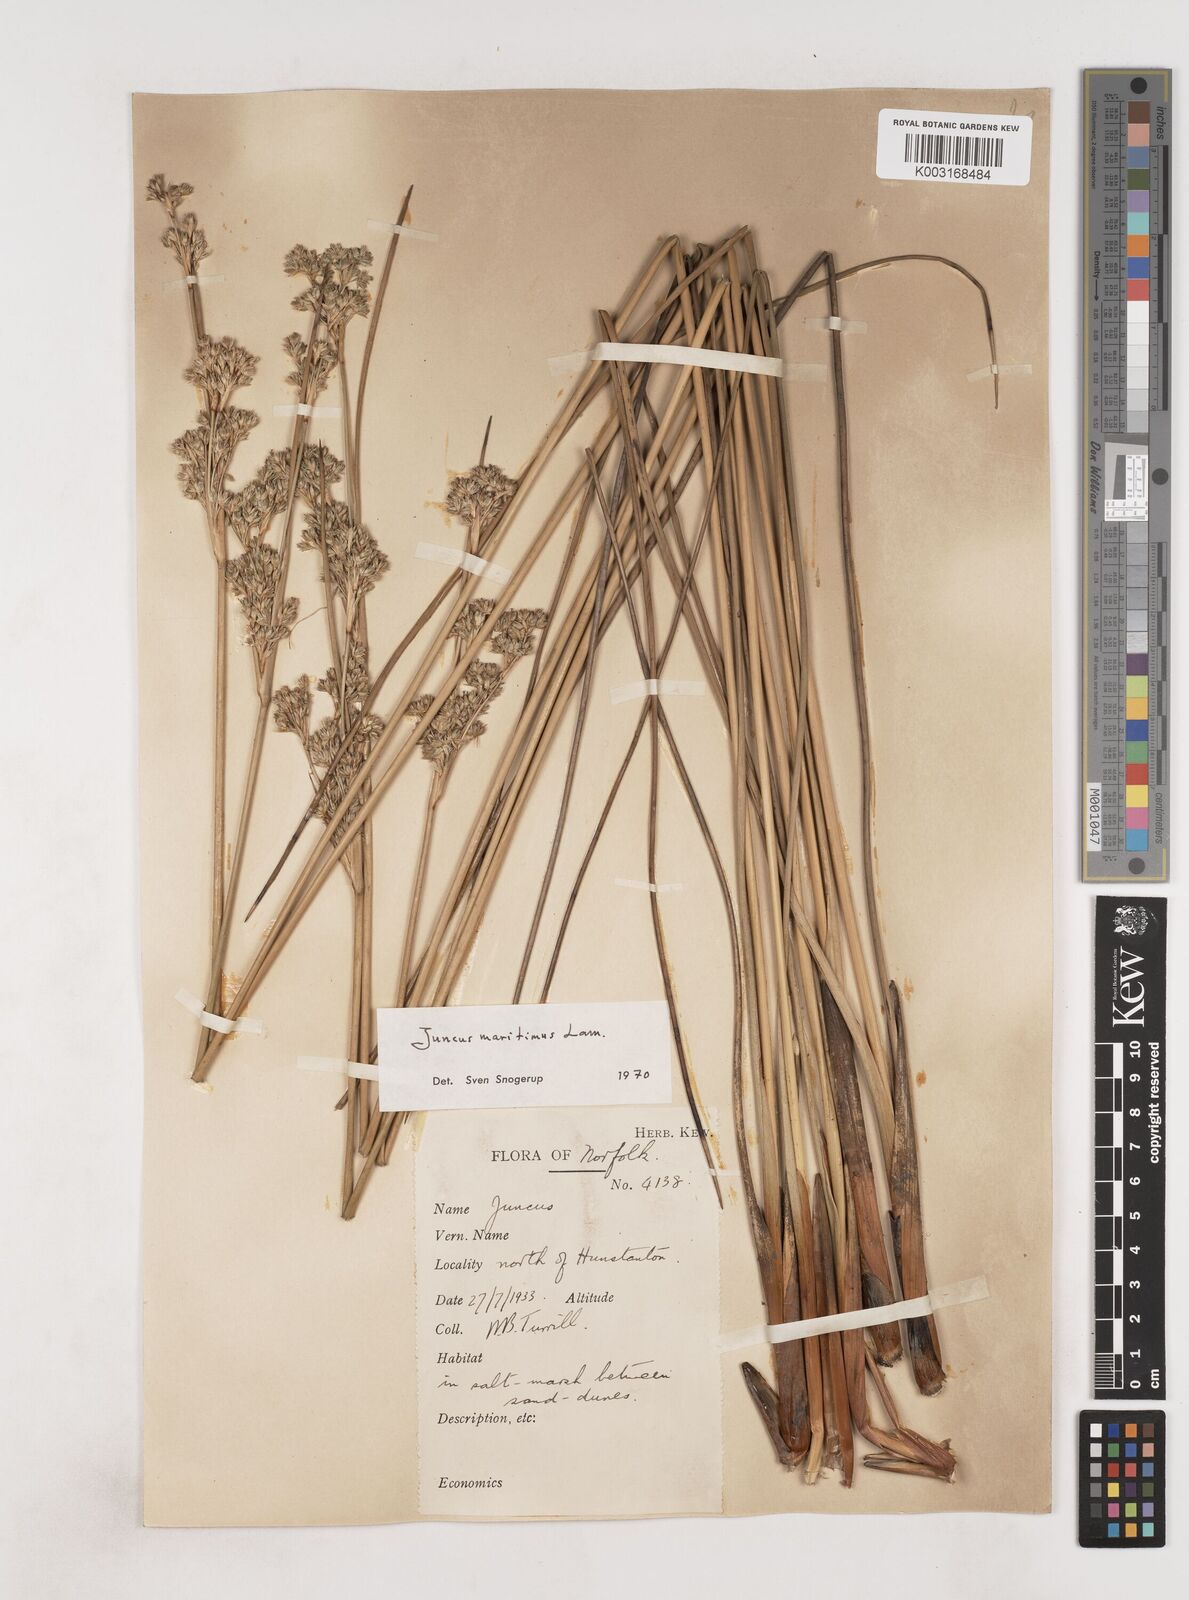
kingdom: Plantae
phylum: Tracheophyta
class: Liliopsida
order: Poales
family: Juncaceae
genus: Juncus
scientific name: Juncus maritimus
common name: Sea rush
